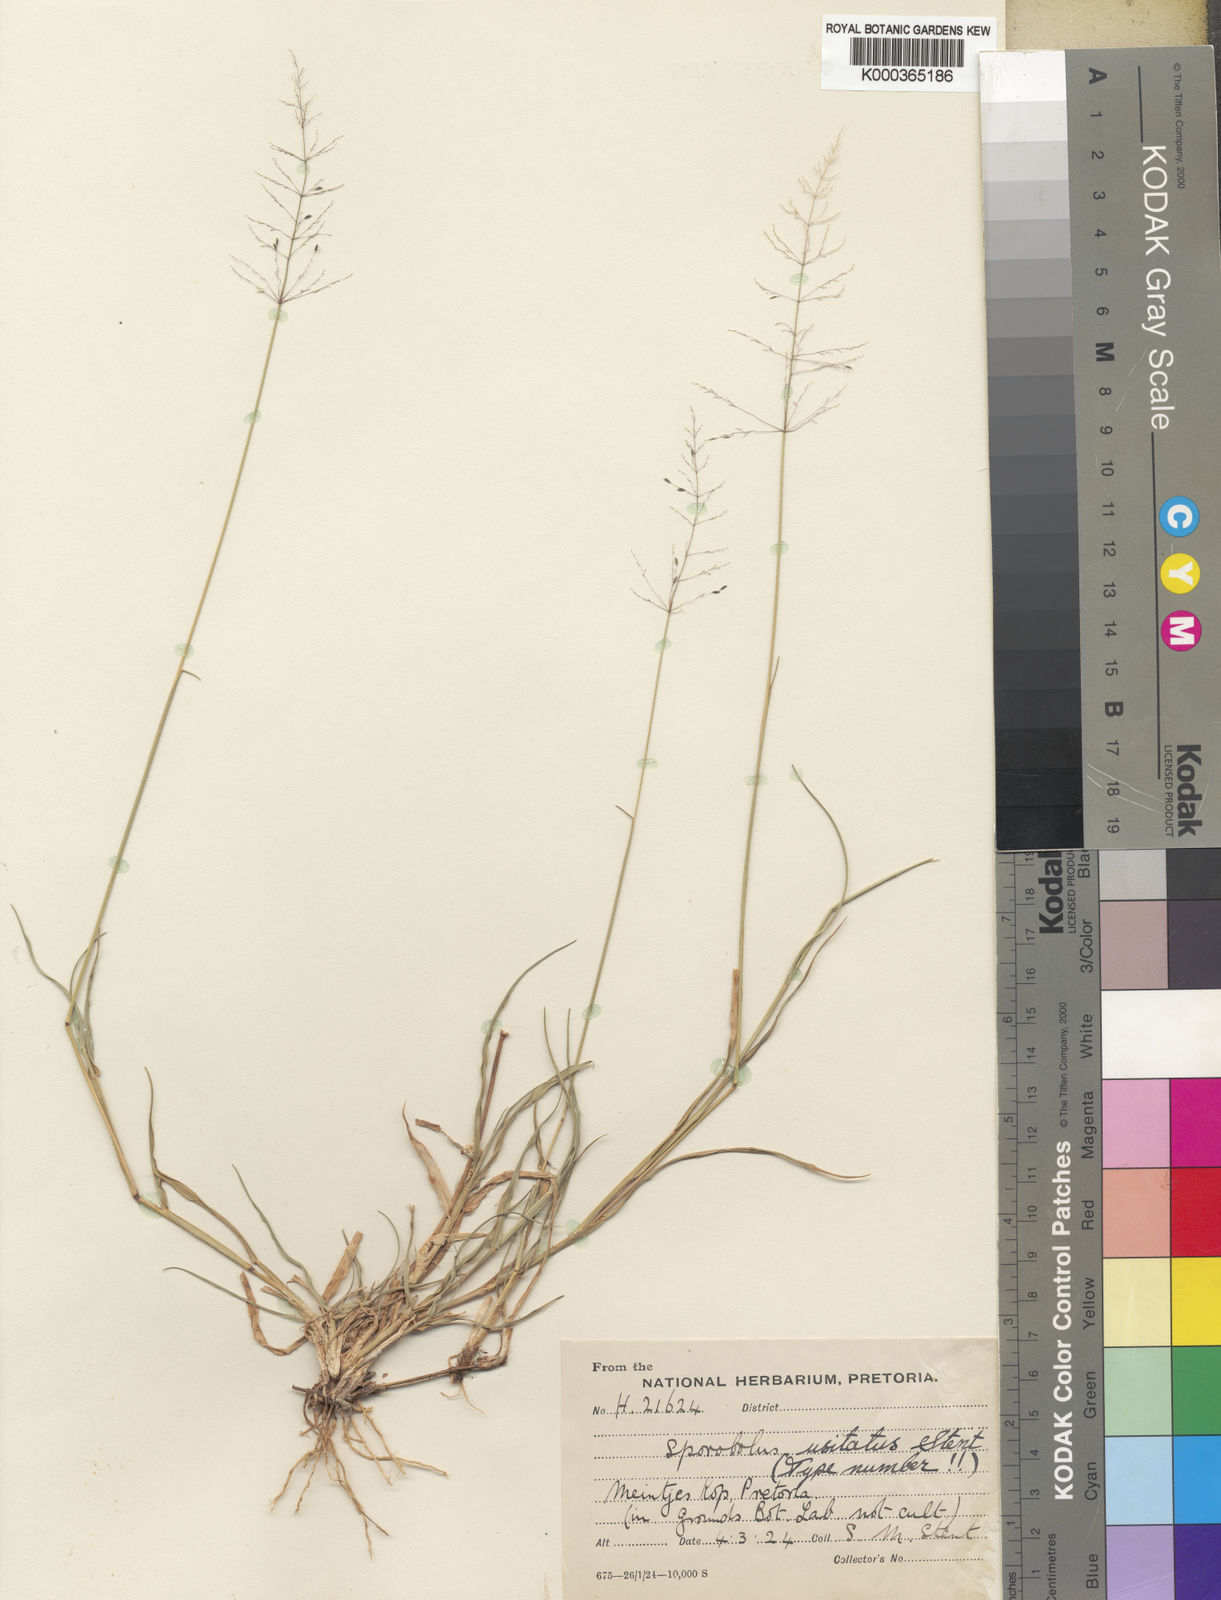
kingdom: Plantae
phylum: Tracheophyta
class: Liliopsida
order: Poales
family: Poaceae
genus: Sporobolus
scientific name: Sporobolus ioclados
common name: Pan dropseed
